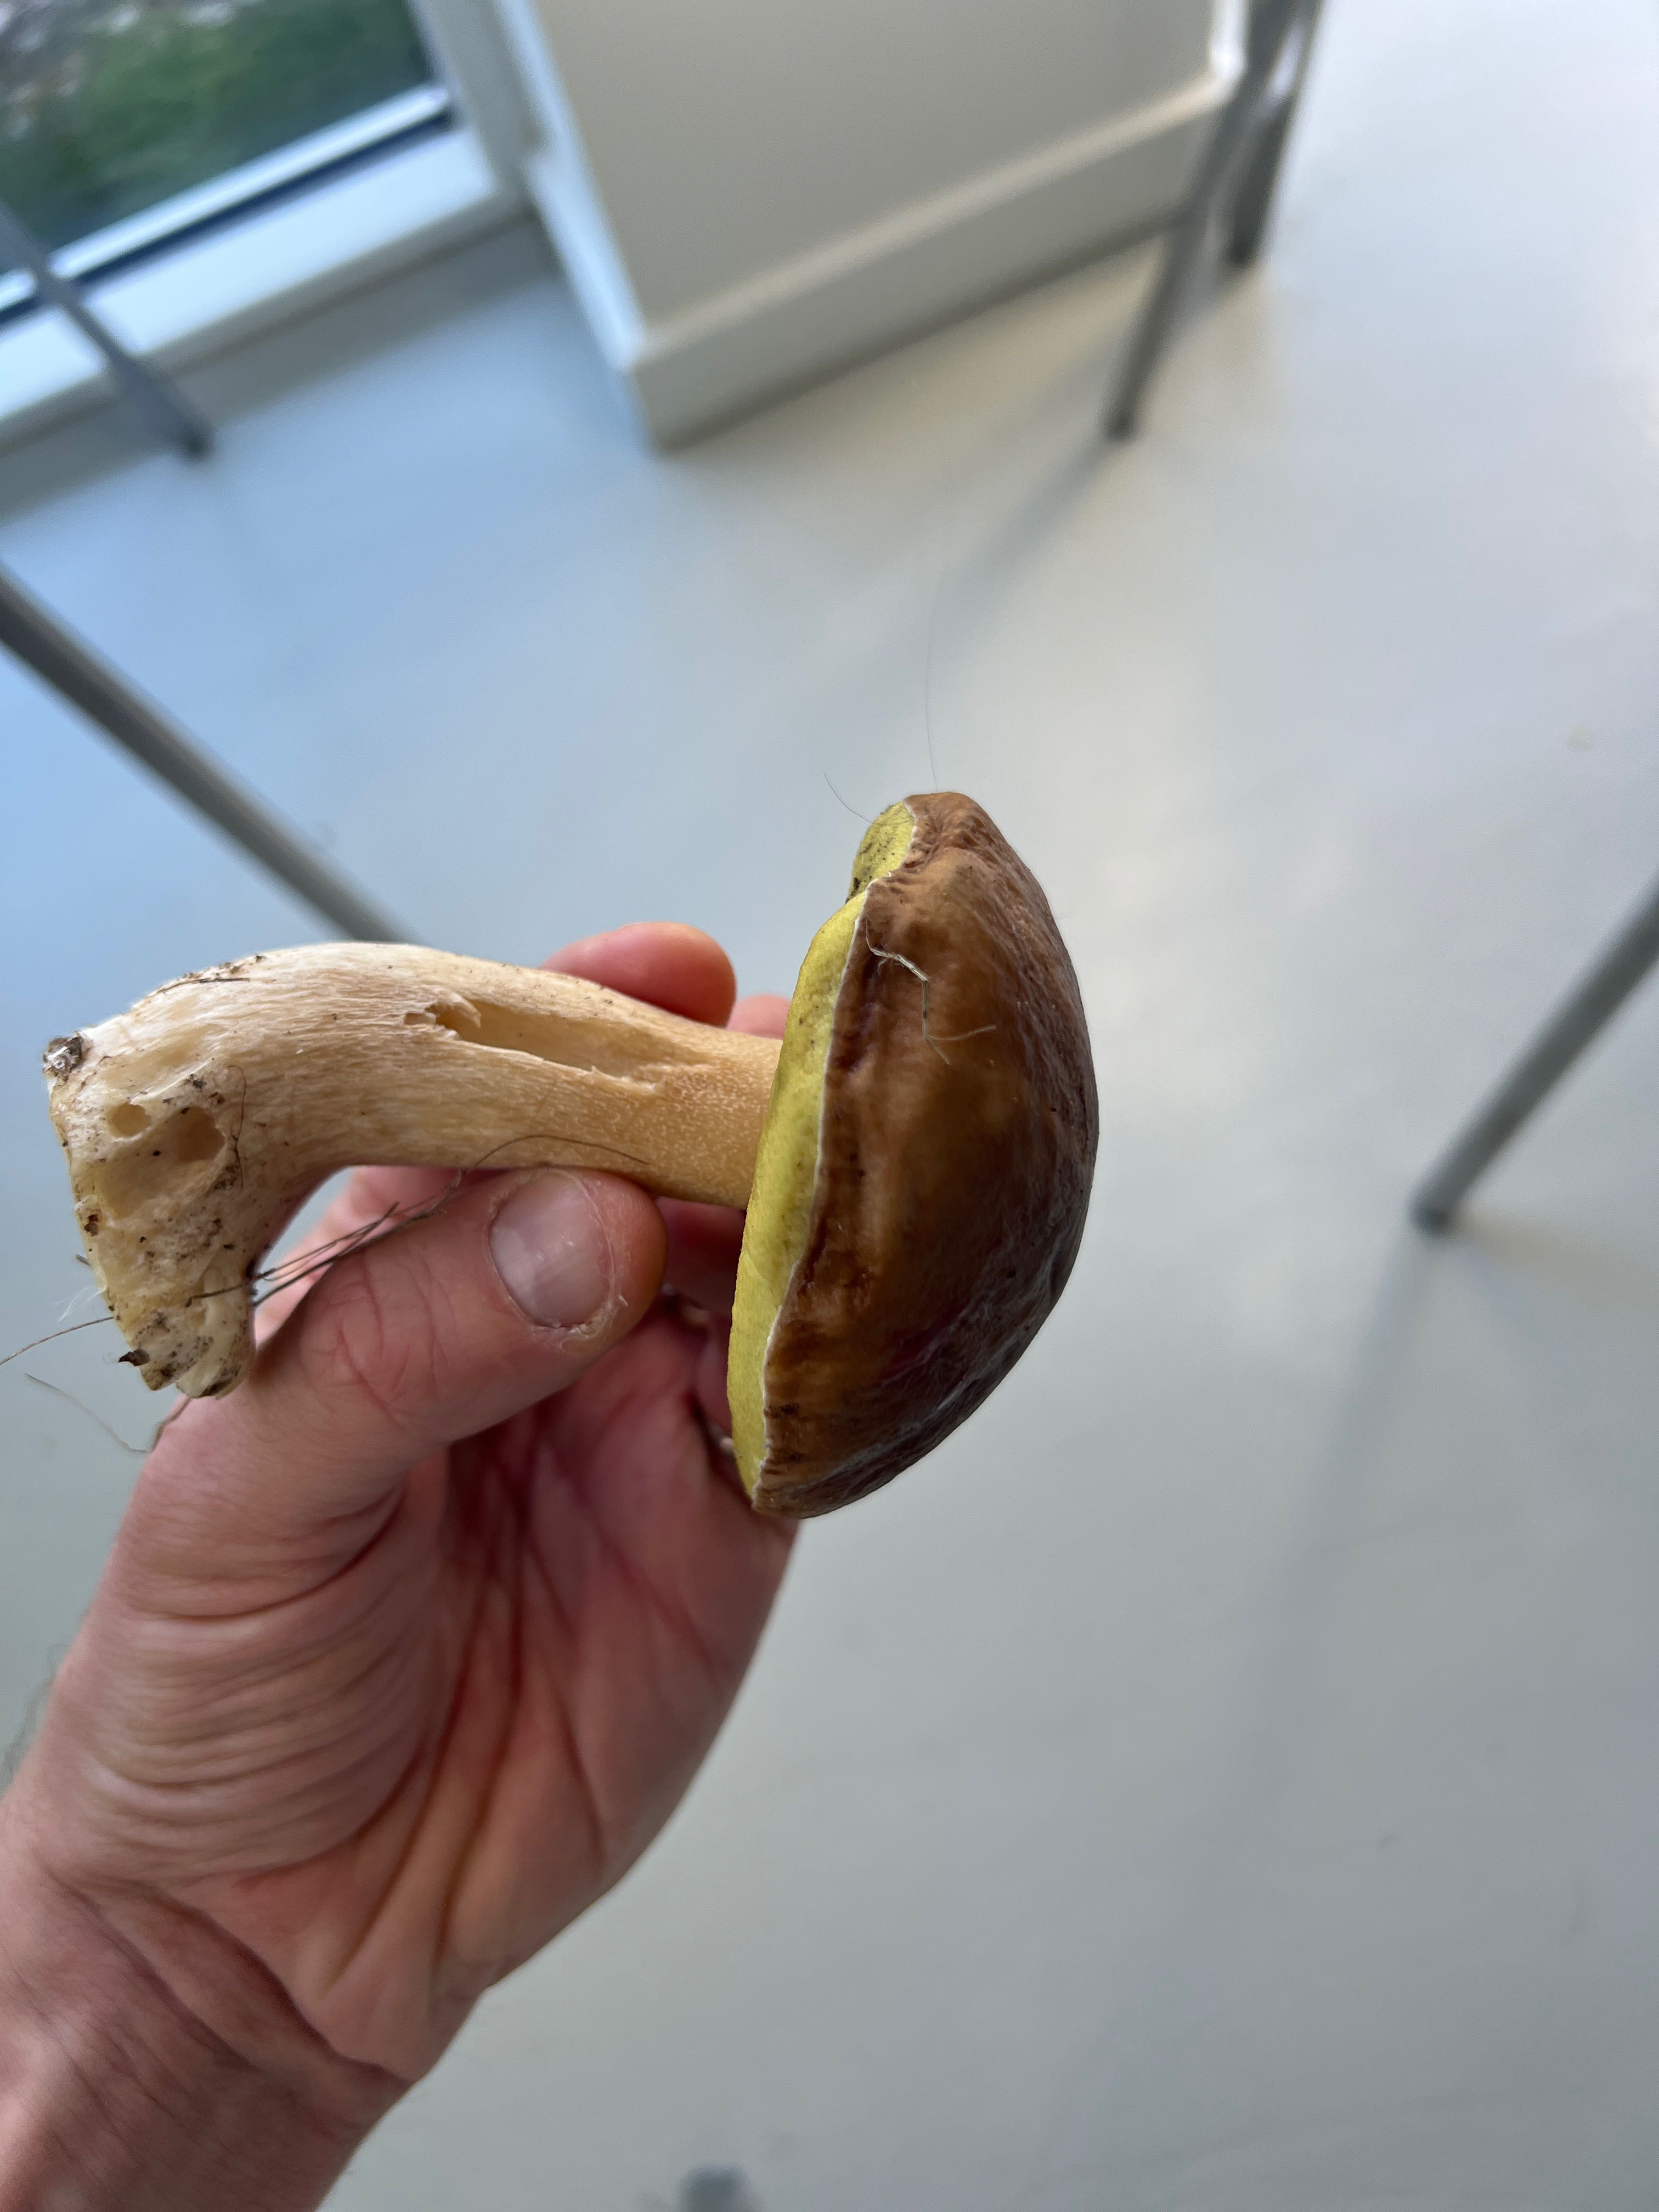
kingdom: Fungi
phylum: Basidiomycota
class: Agaricomycetes
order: Boletales
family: Boletaceae
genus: Boletus
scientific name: Boletus edulis
